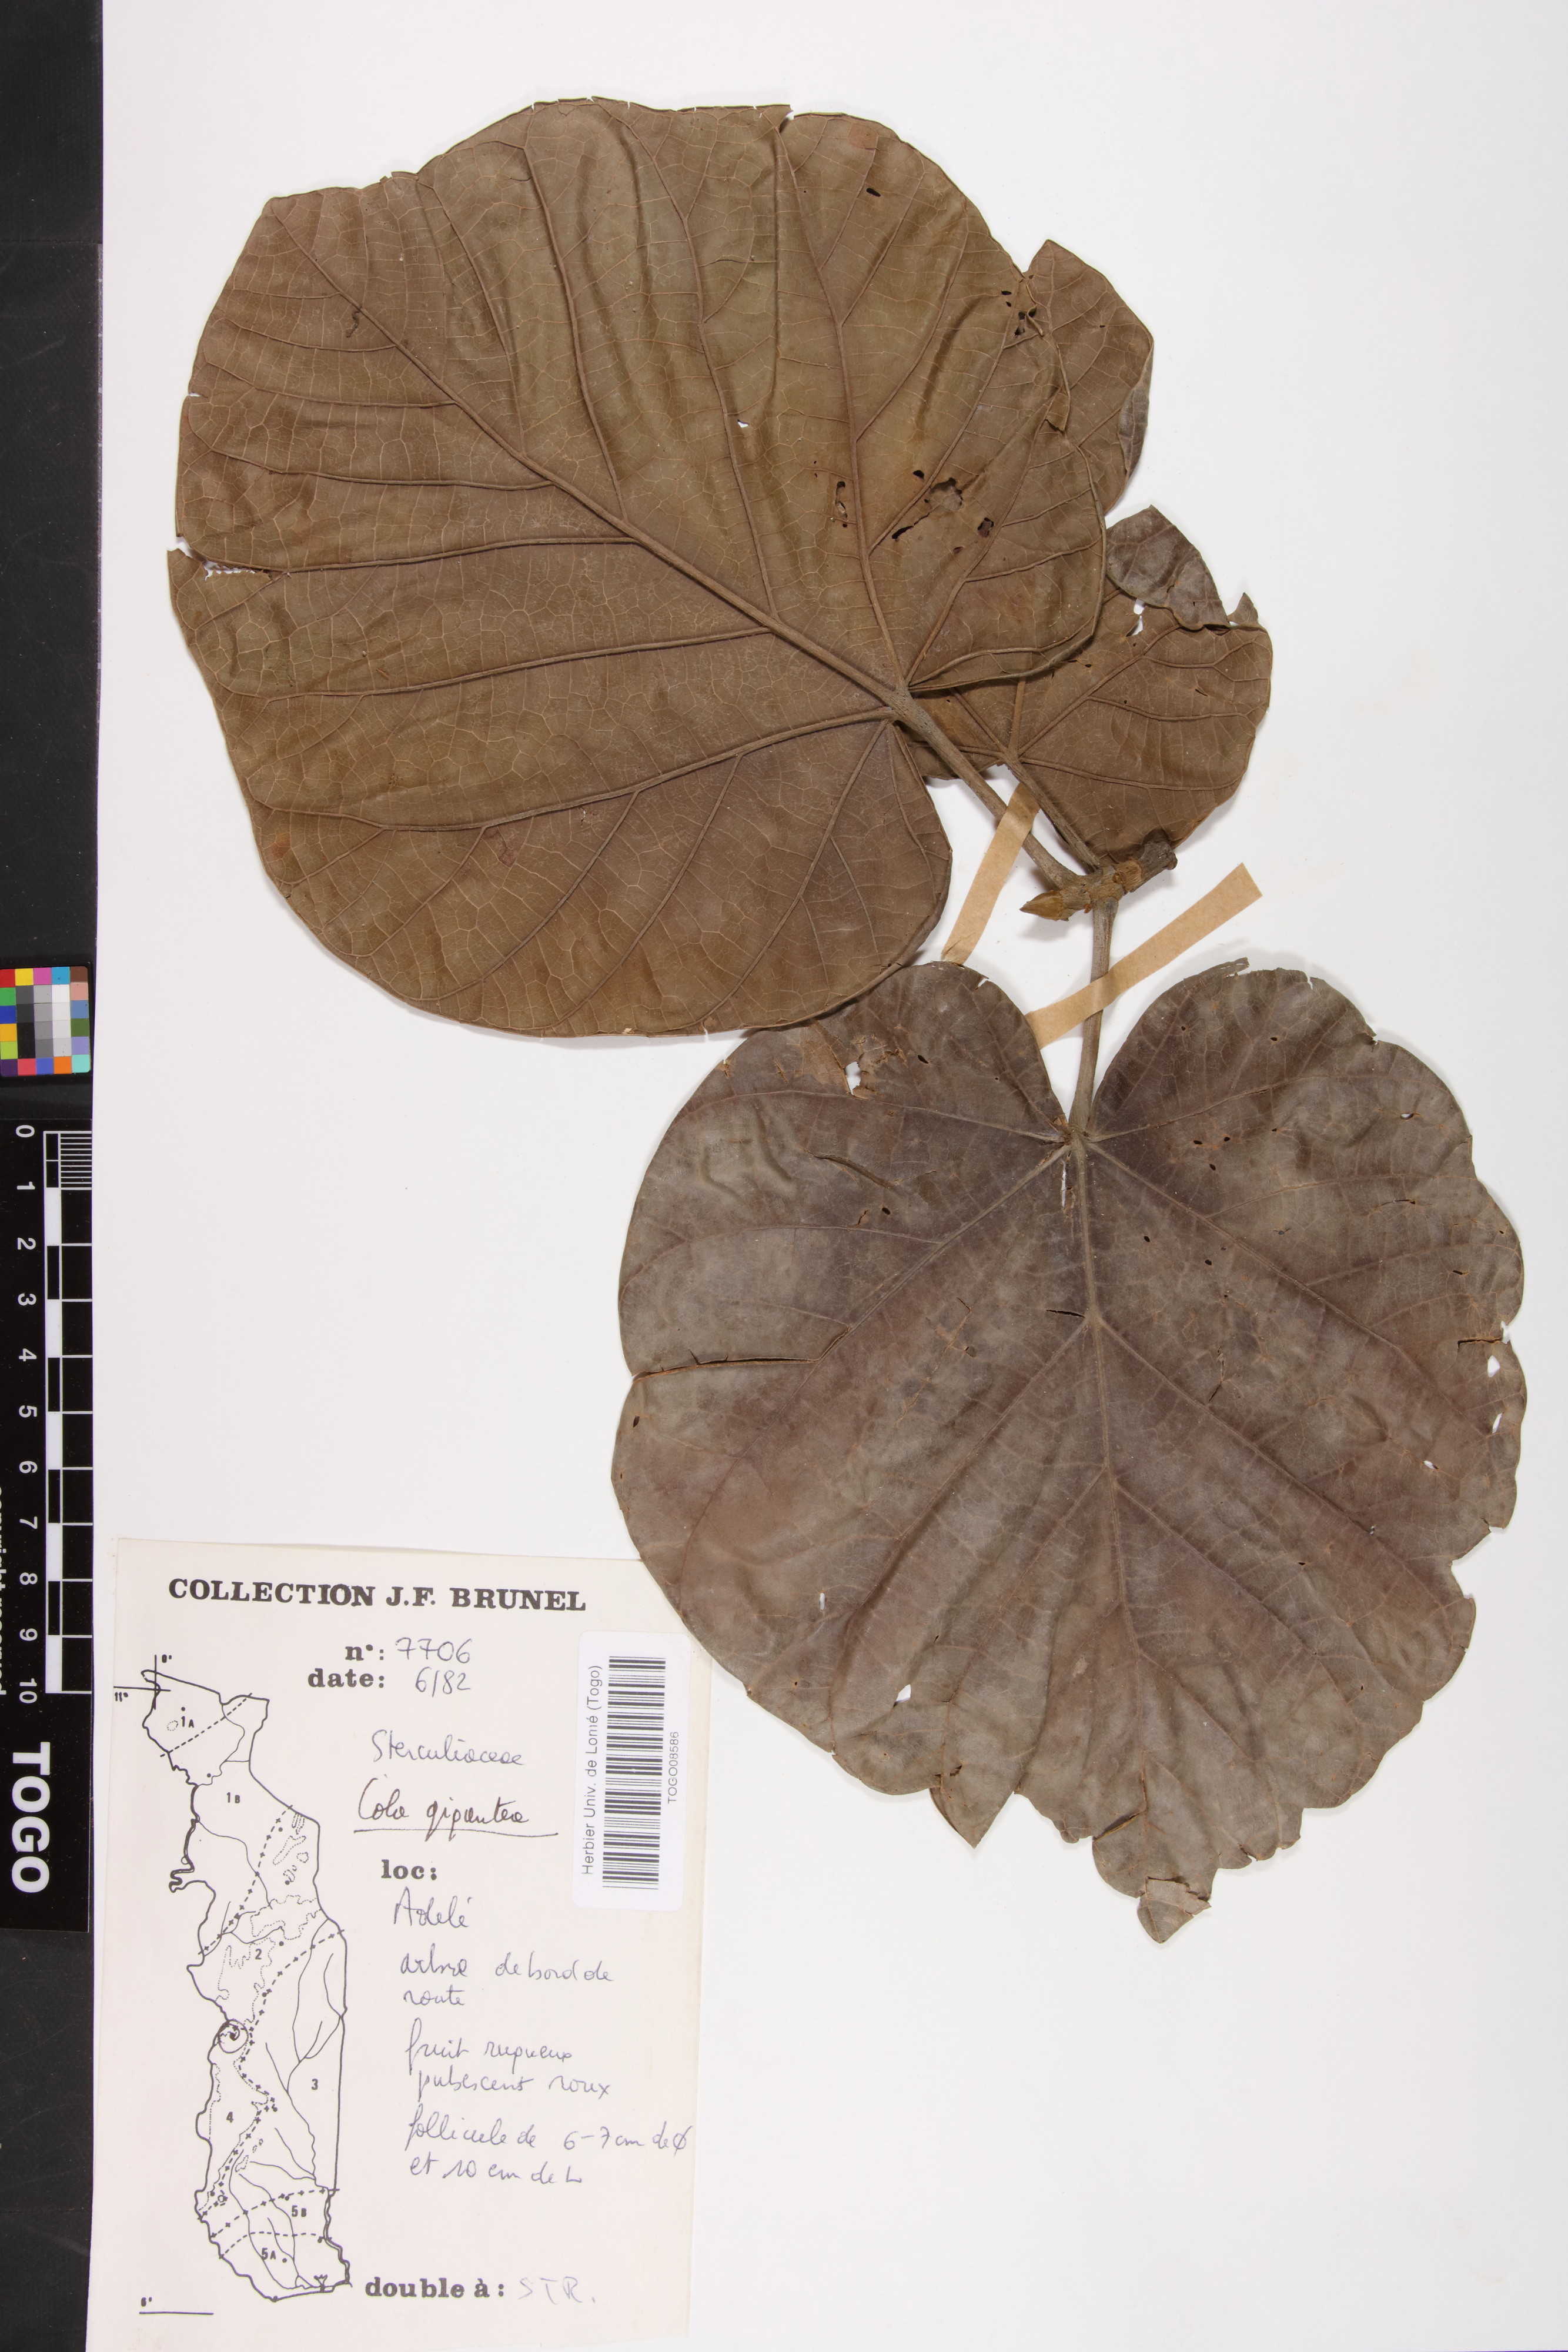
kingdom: Plantae
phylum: Tracheophyta
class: Magnoliopsida
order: Malvales
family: Malvaceae
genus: Cola
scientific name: Cola gigantea
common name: Giant cola
